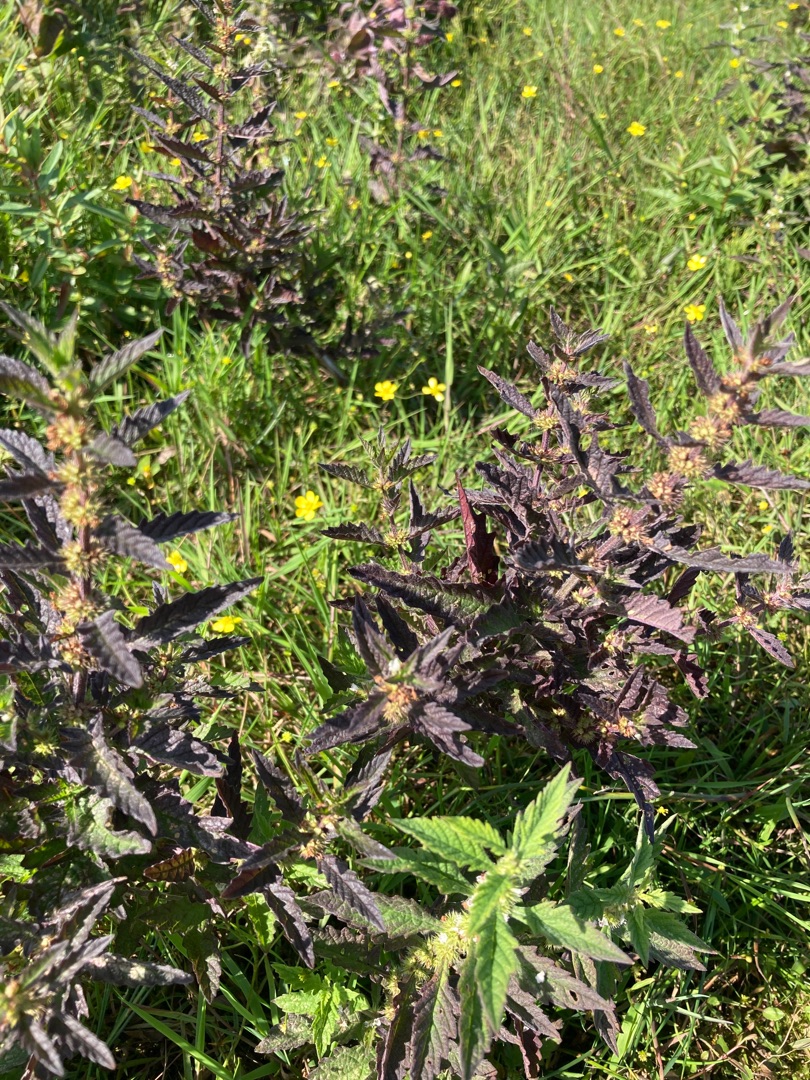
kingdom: Plantae
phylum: Tracheophyta
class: Magnoliopsida
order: Lamiales
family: Lamiaceae
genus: Lycopus
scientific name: Lycopus europaeus
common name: Sværtevæld
